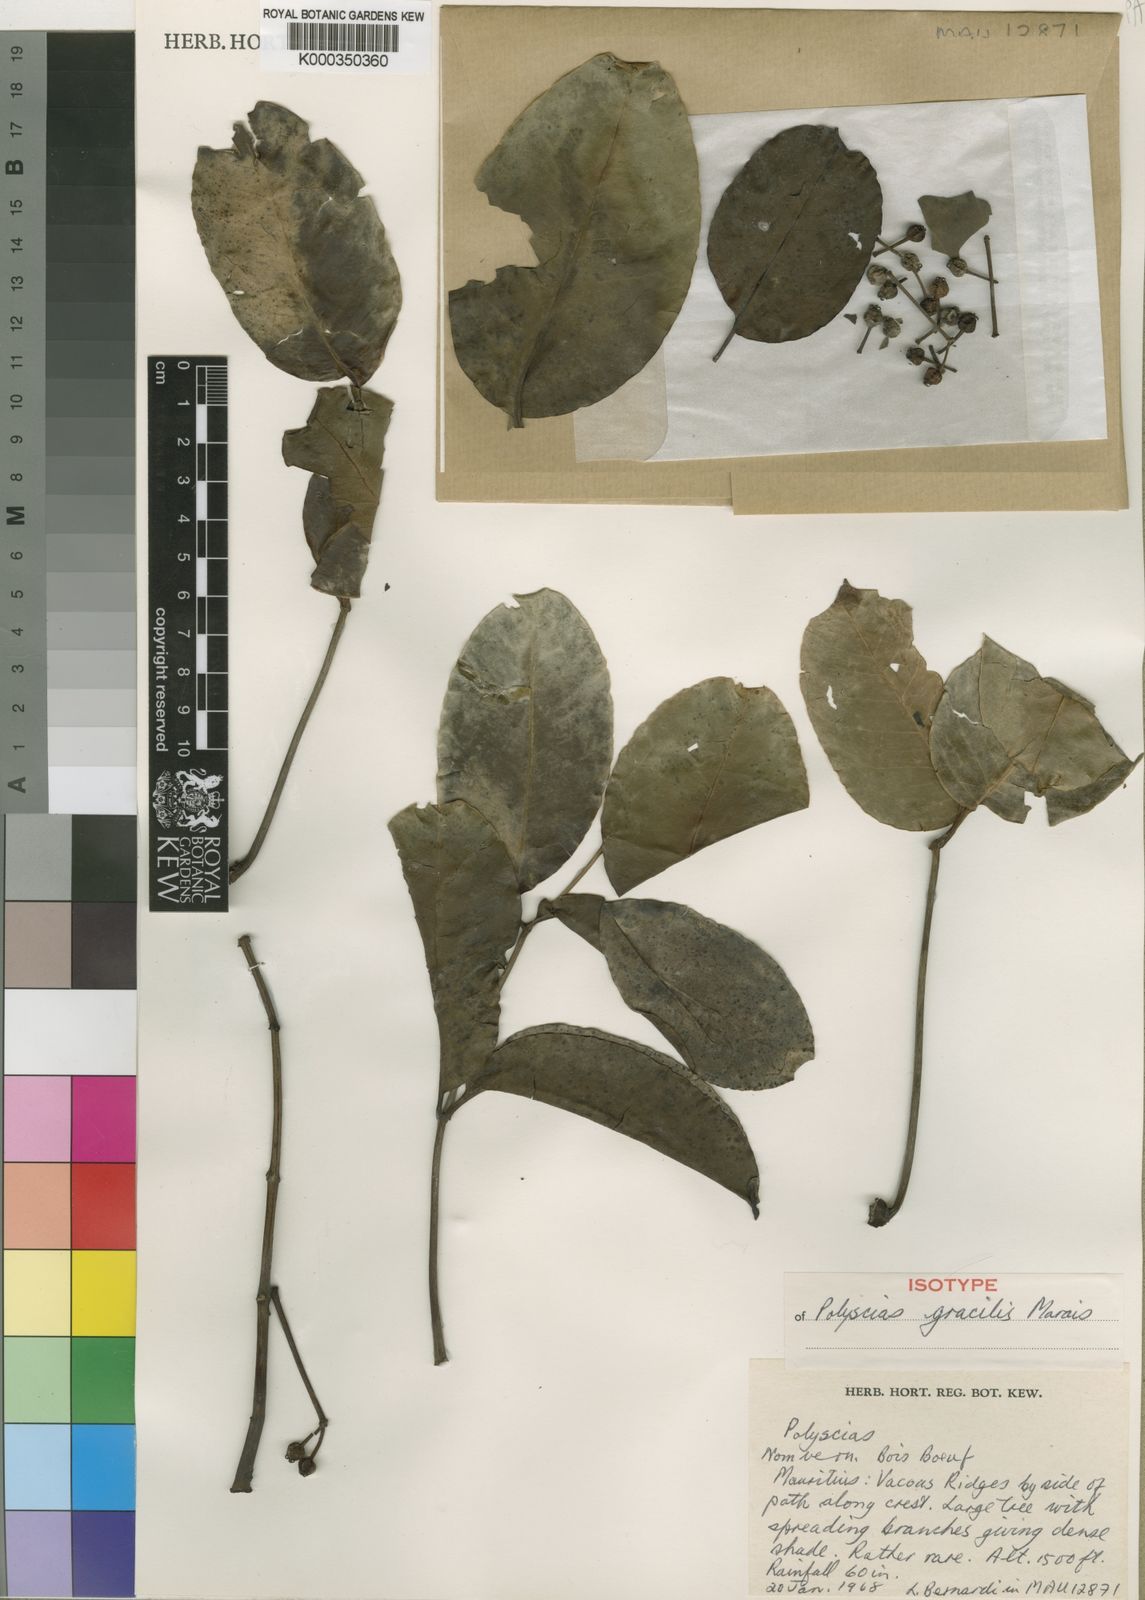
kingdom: Plantae
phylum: Tracheophyta
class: Magnoliopsida
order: Apiales
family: Araliaceae
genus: Polyscias
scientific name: Polyscias gracilis
